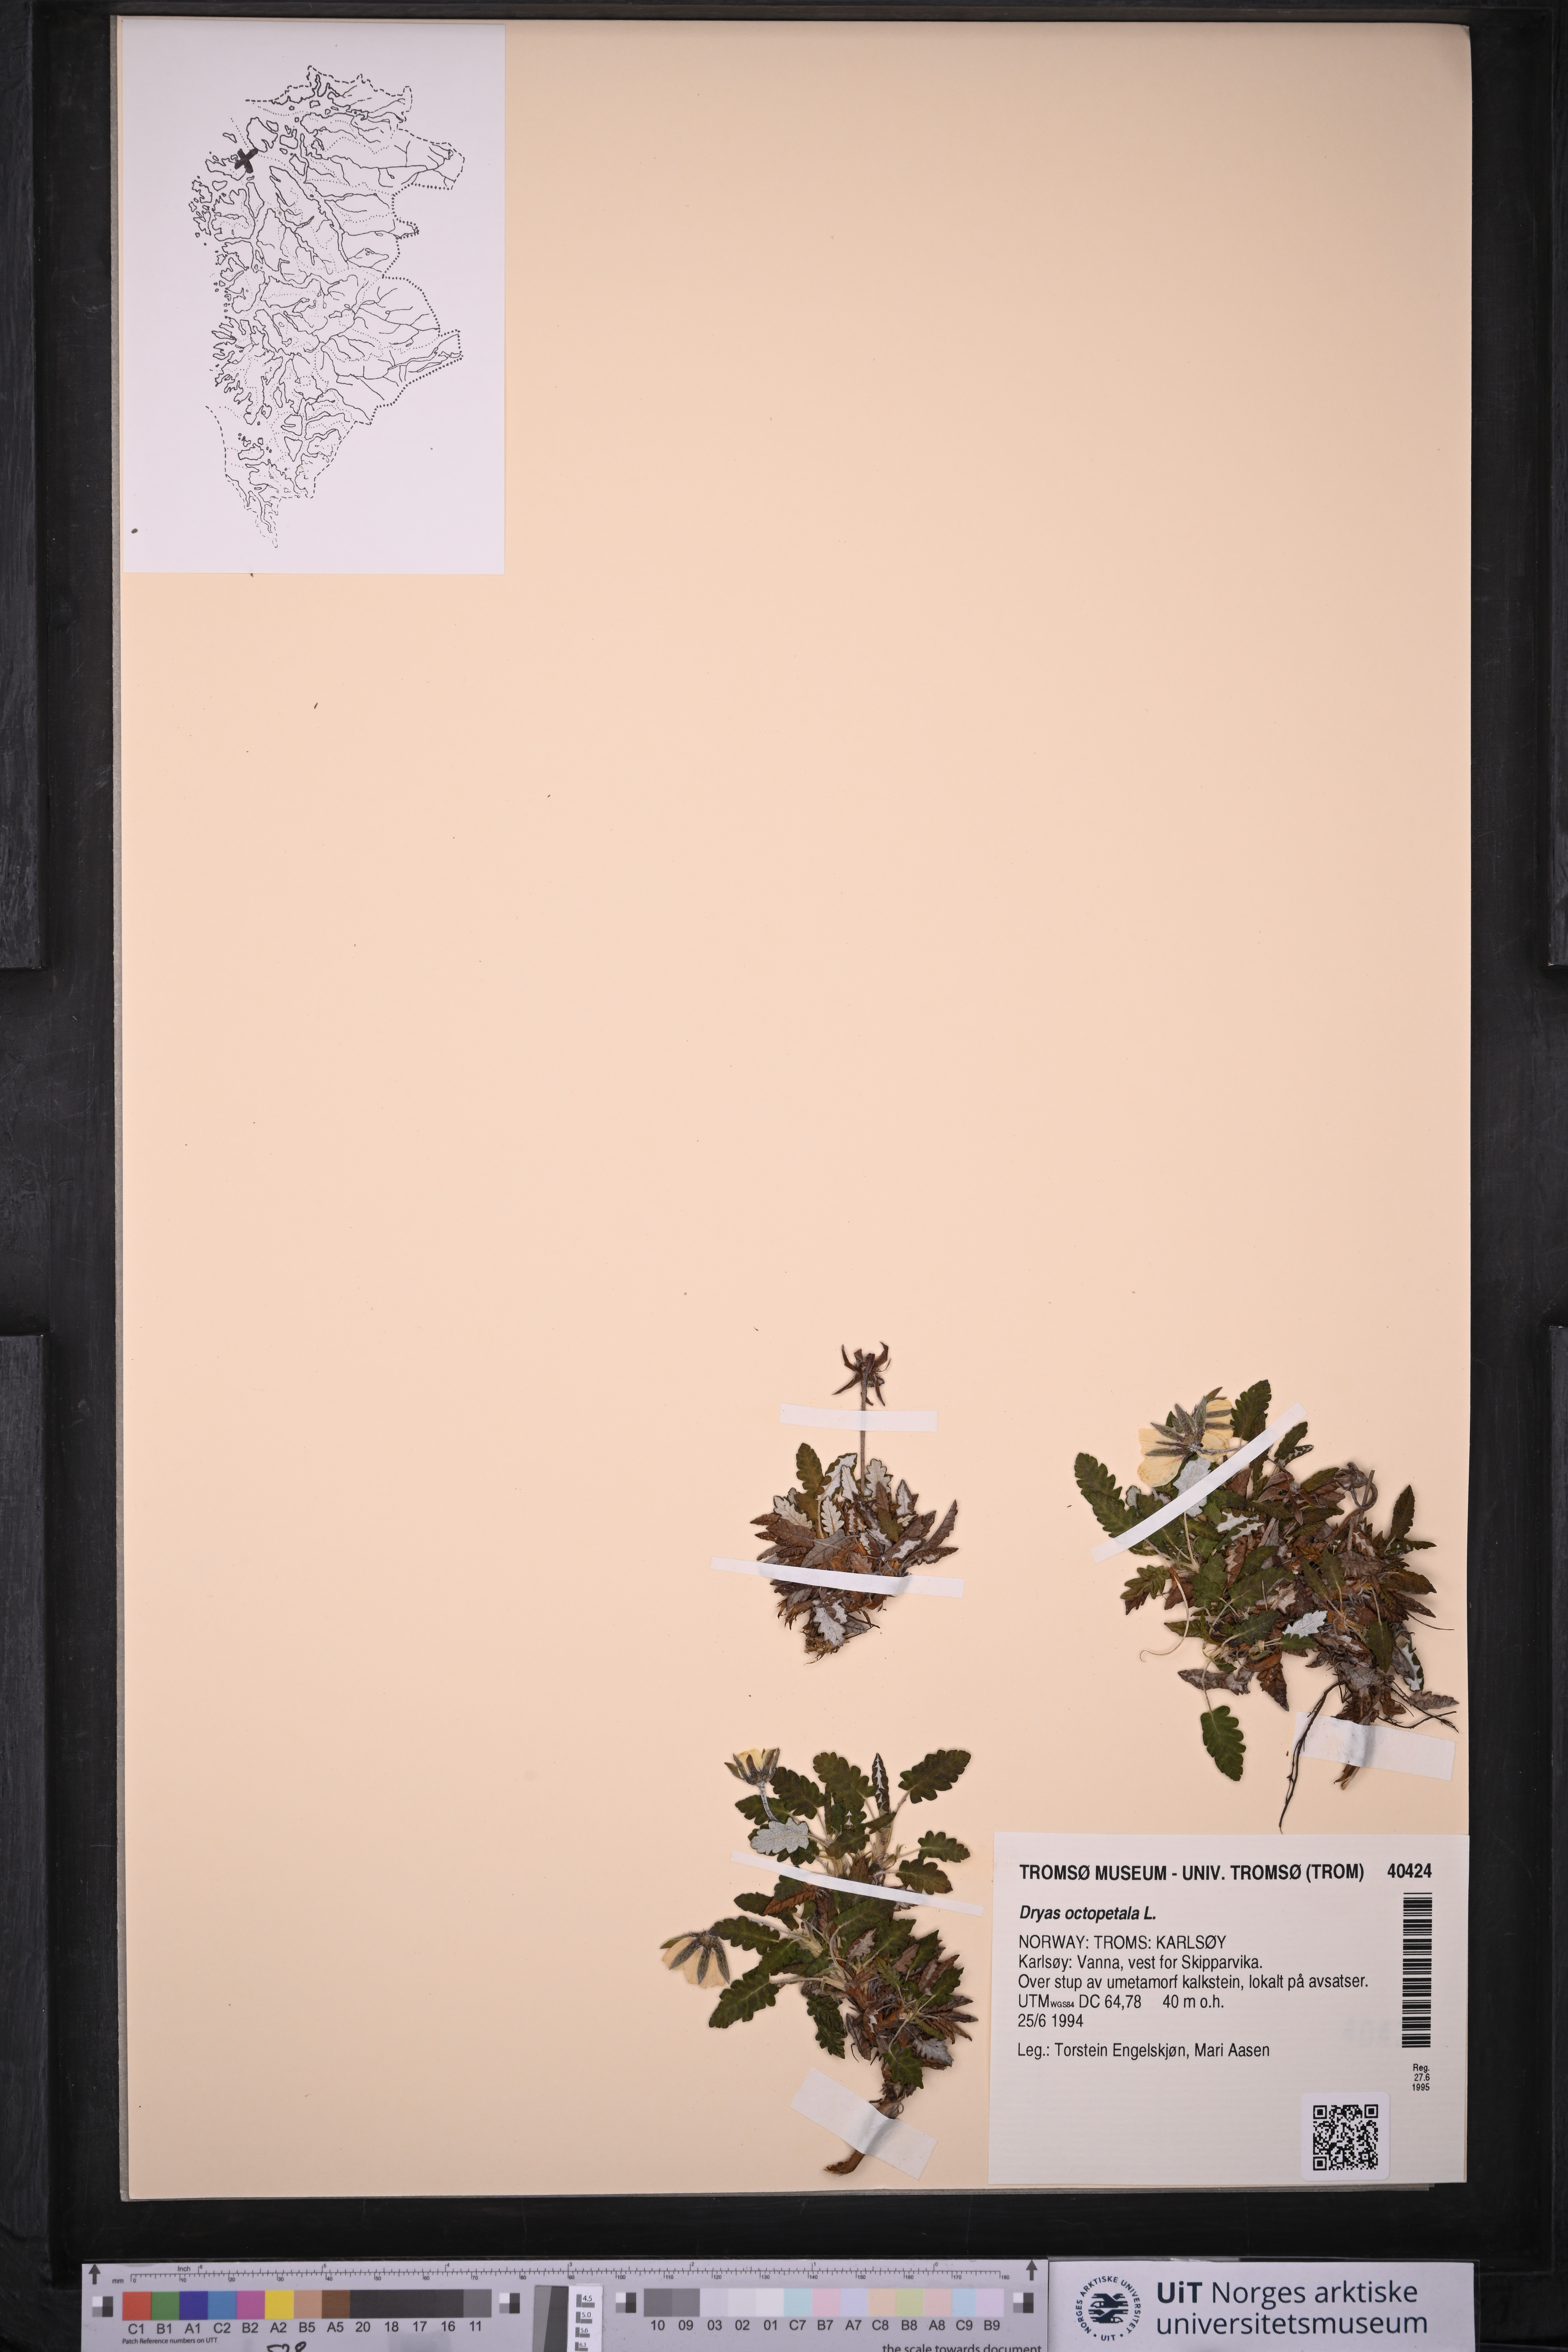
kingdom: Plantae
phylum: Tracheophyta
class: Magnoliopsida
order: Rosales
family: Rosaceae
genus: Dryas
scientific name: Dryas octopetala
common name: Eight-petal mountain-avens
